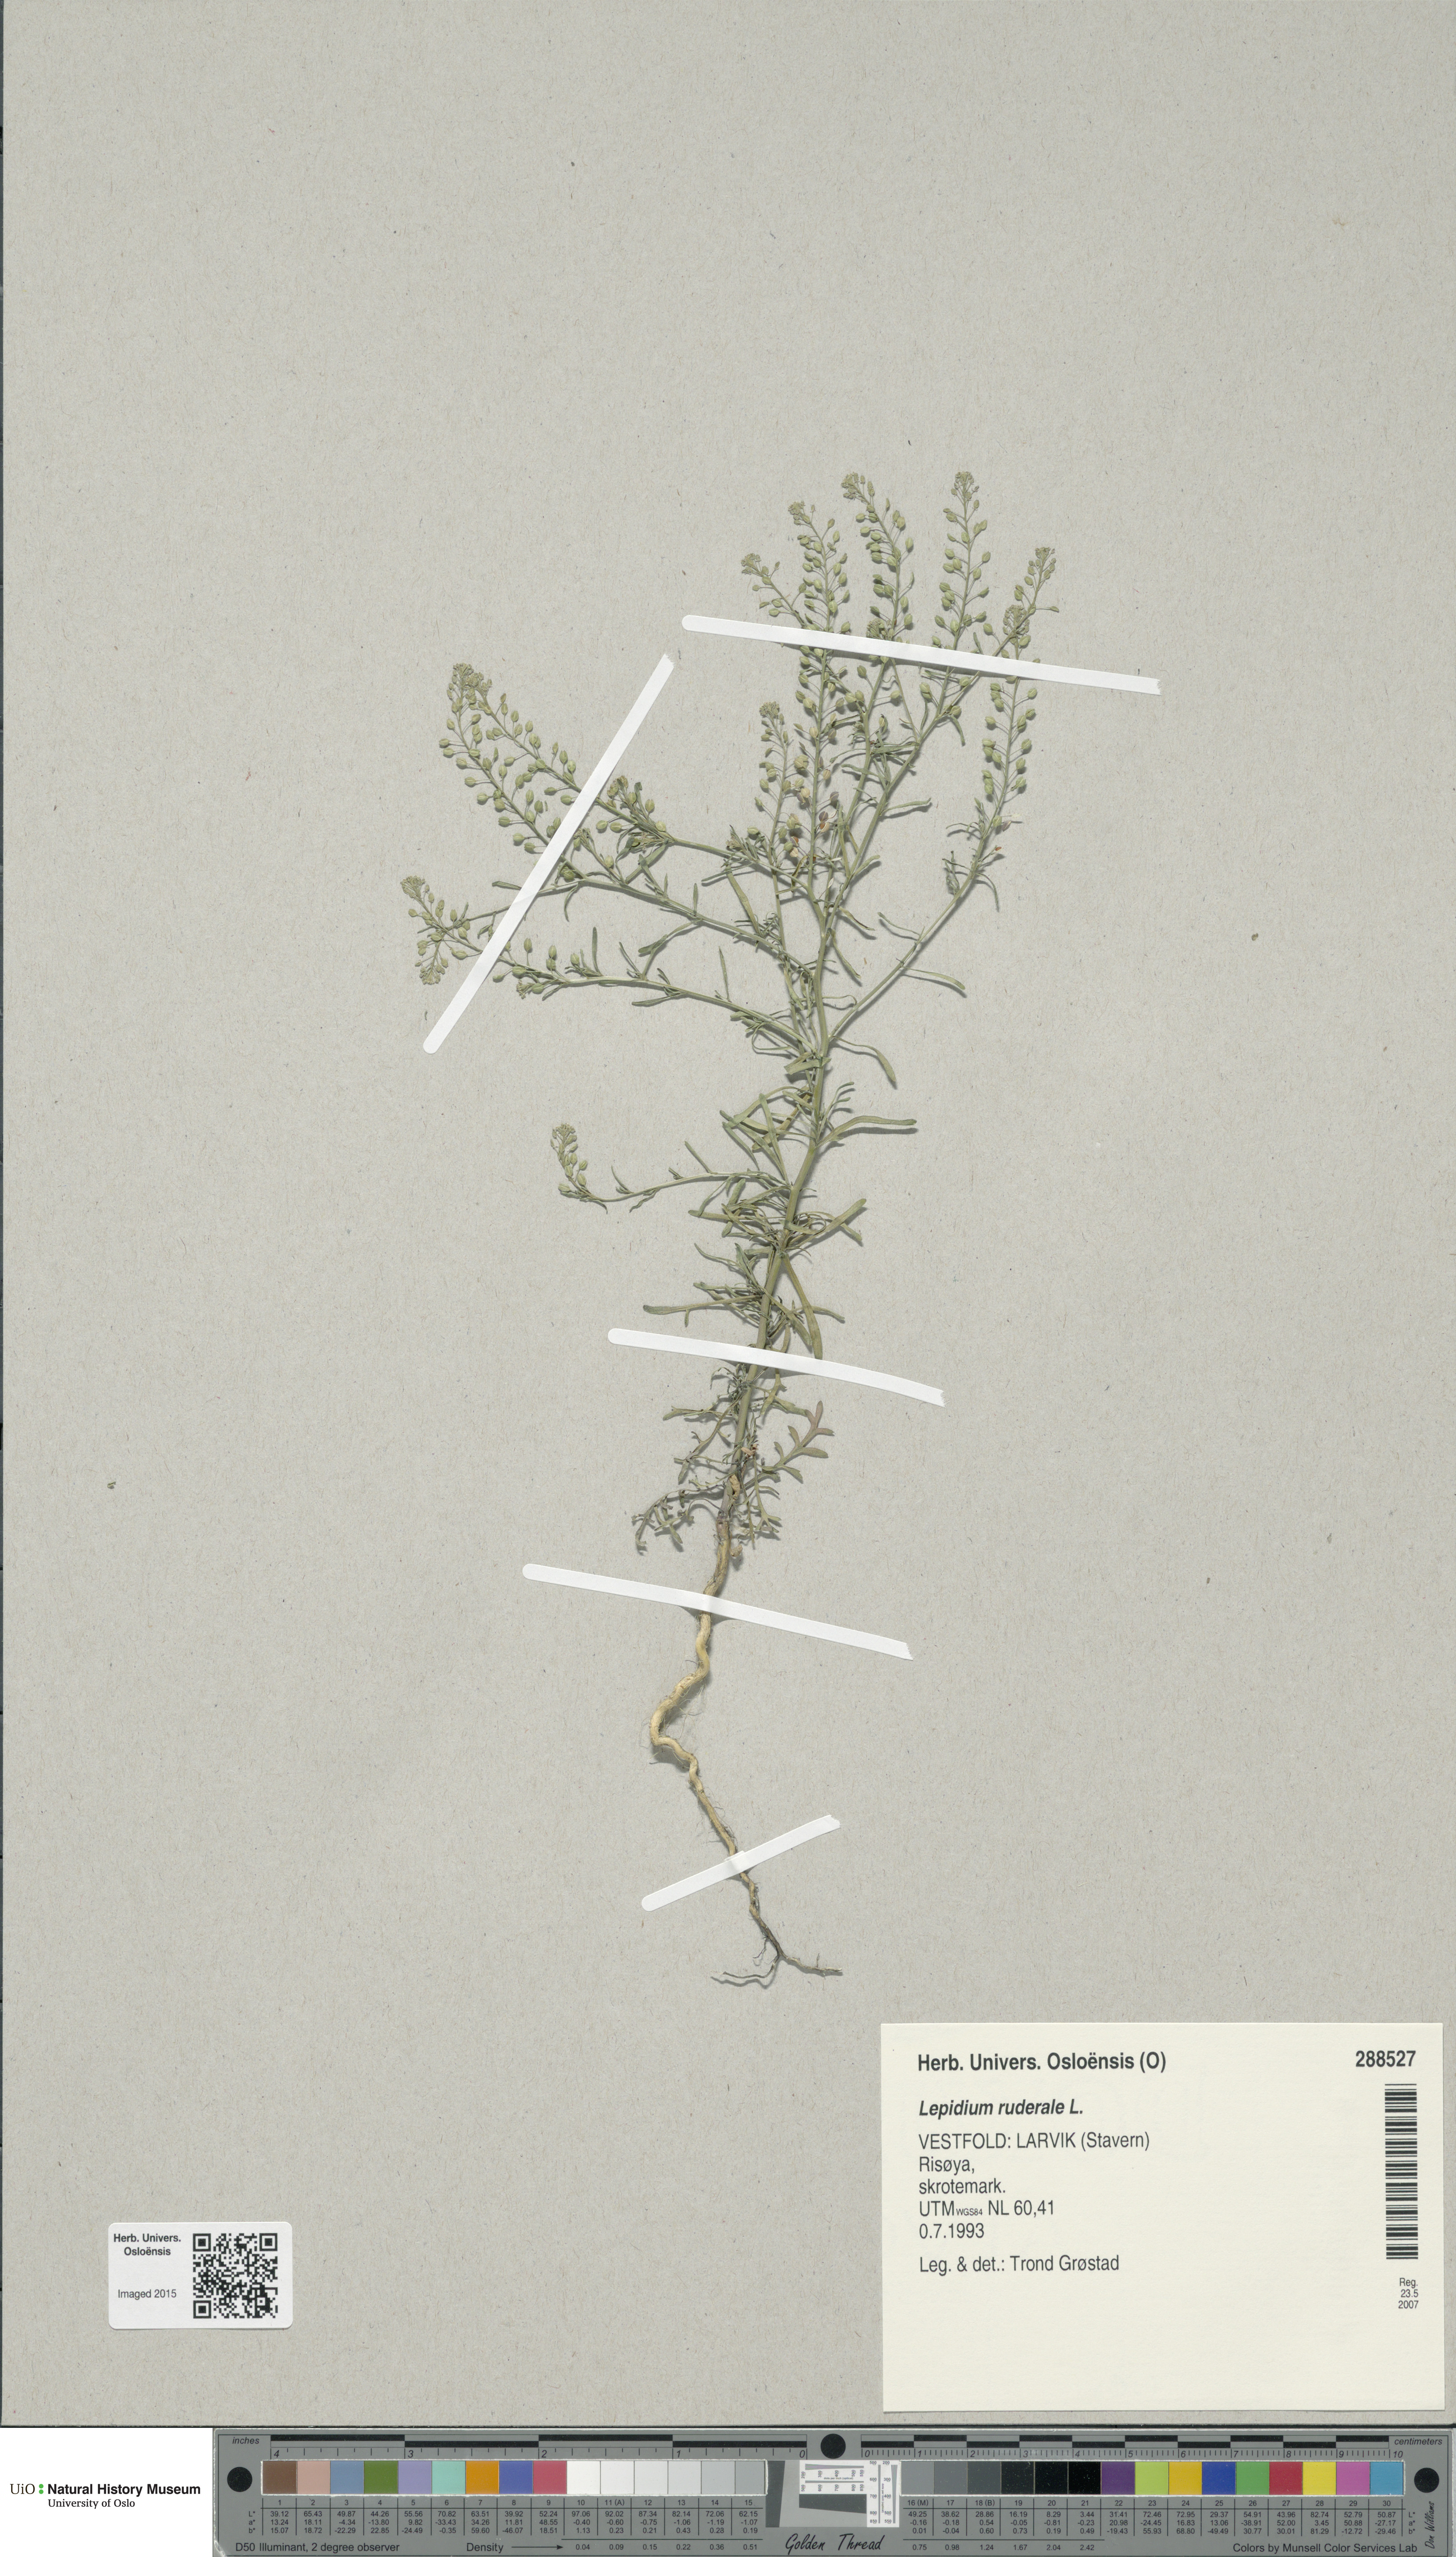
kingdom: Plantae
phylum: Tracheophyta
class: Magnoliopsida
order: Brassicales
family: Brassicaceae
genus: Lepidium
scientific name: Lepidium ruderale
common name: Narrow-leaved pepperwort
